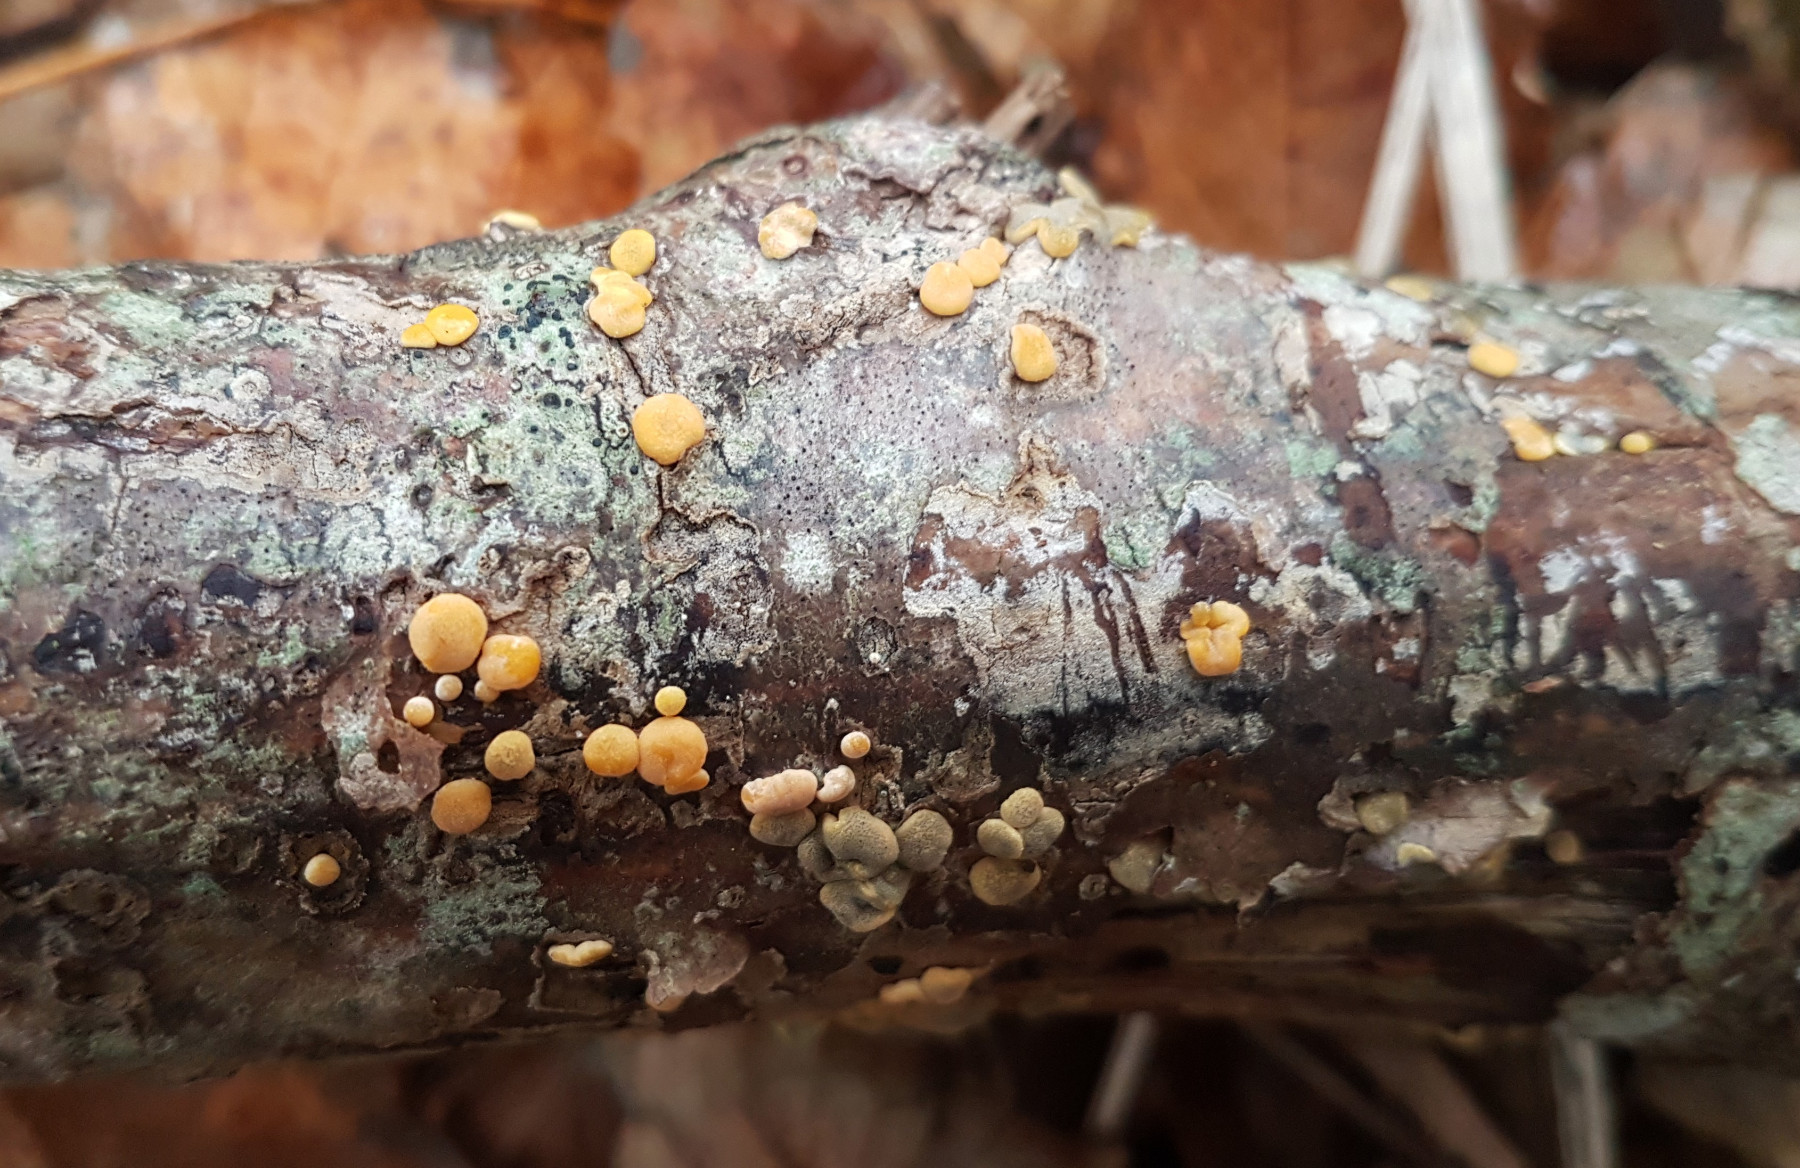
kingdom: Fungi
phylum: Ascomycota
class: Sordariomycetes
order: Hypocreales
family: Hypocreaceae
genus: Trichoderma
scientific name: Trichoderma aureoviride
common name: æggegul kødkerne
